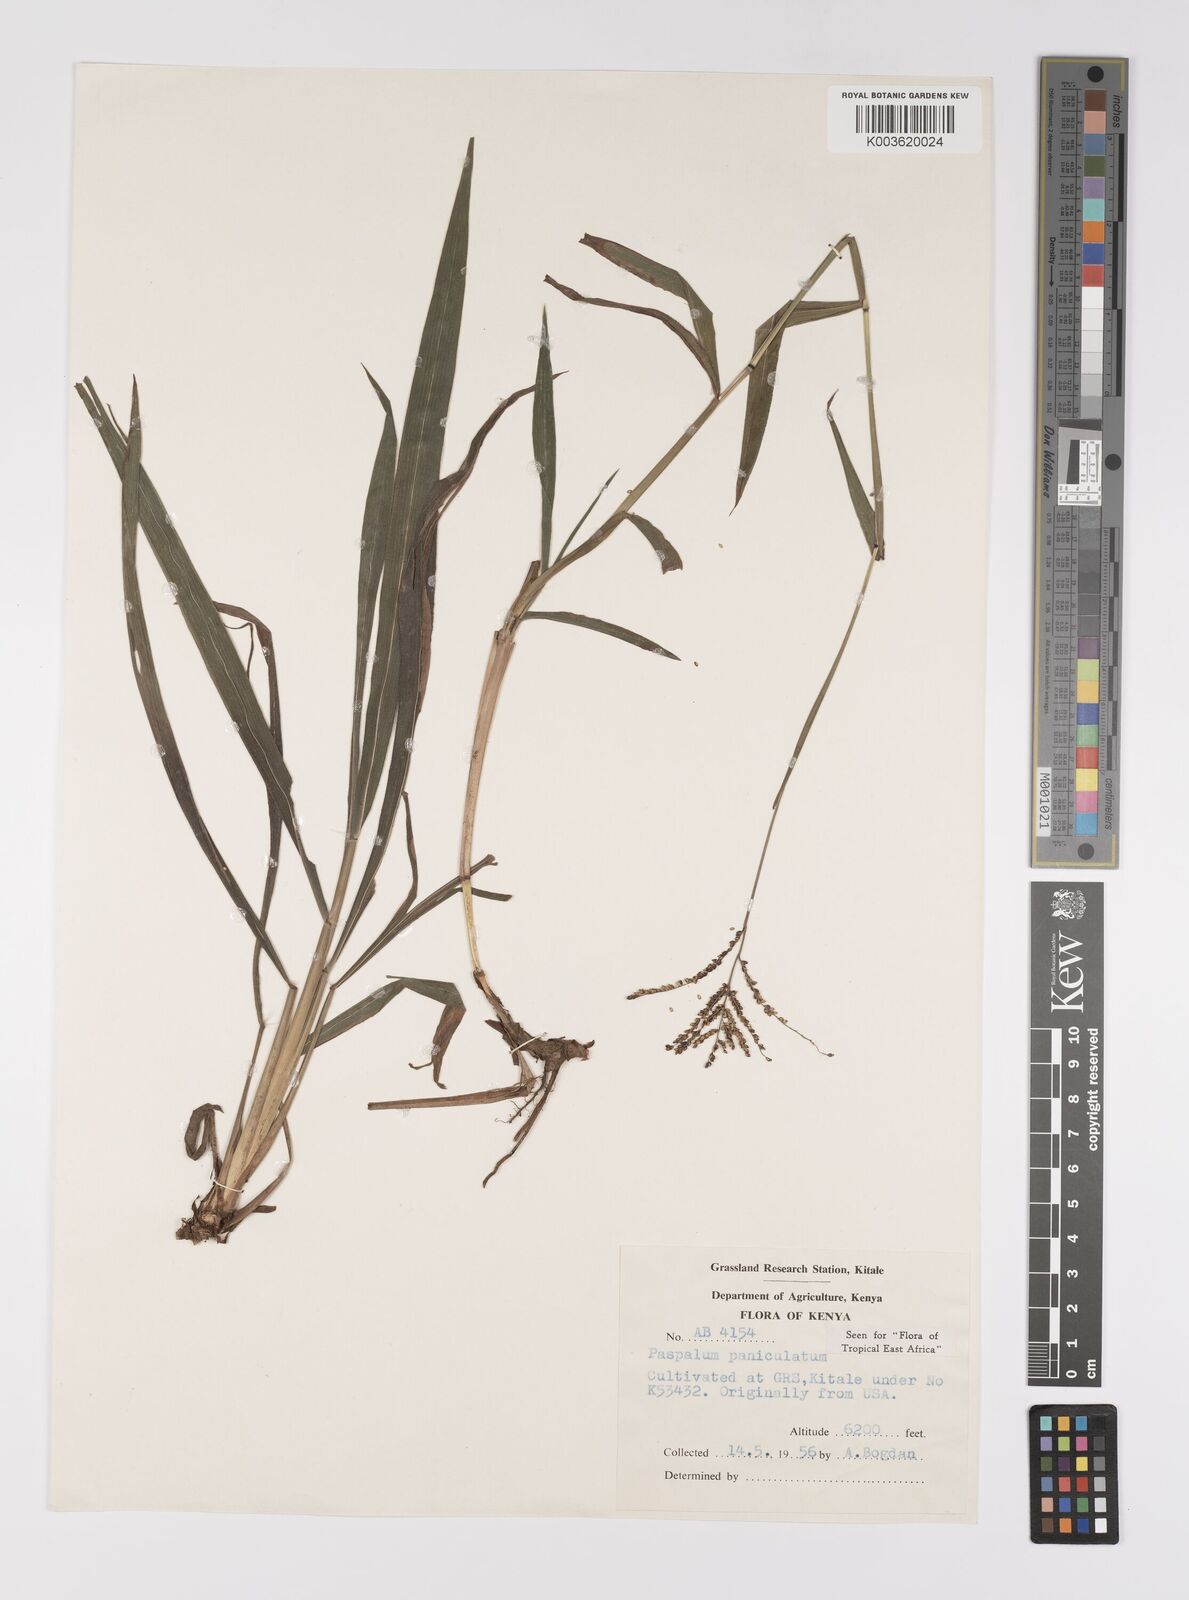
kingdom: Plantae
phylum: Tracheophyta
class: Liliopsida
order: Poales
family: Poaceae
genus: Paspalum
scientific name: Paspalum paniculatum
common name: Arrocillo
